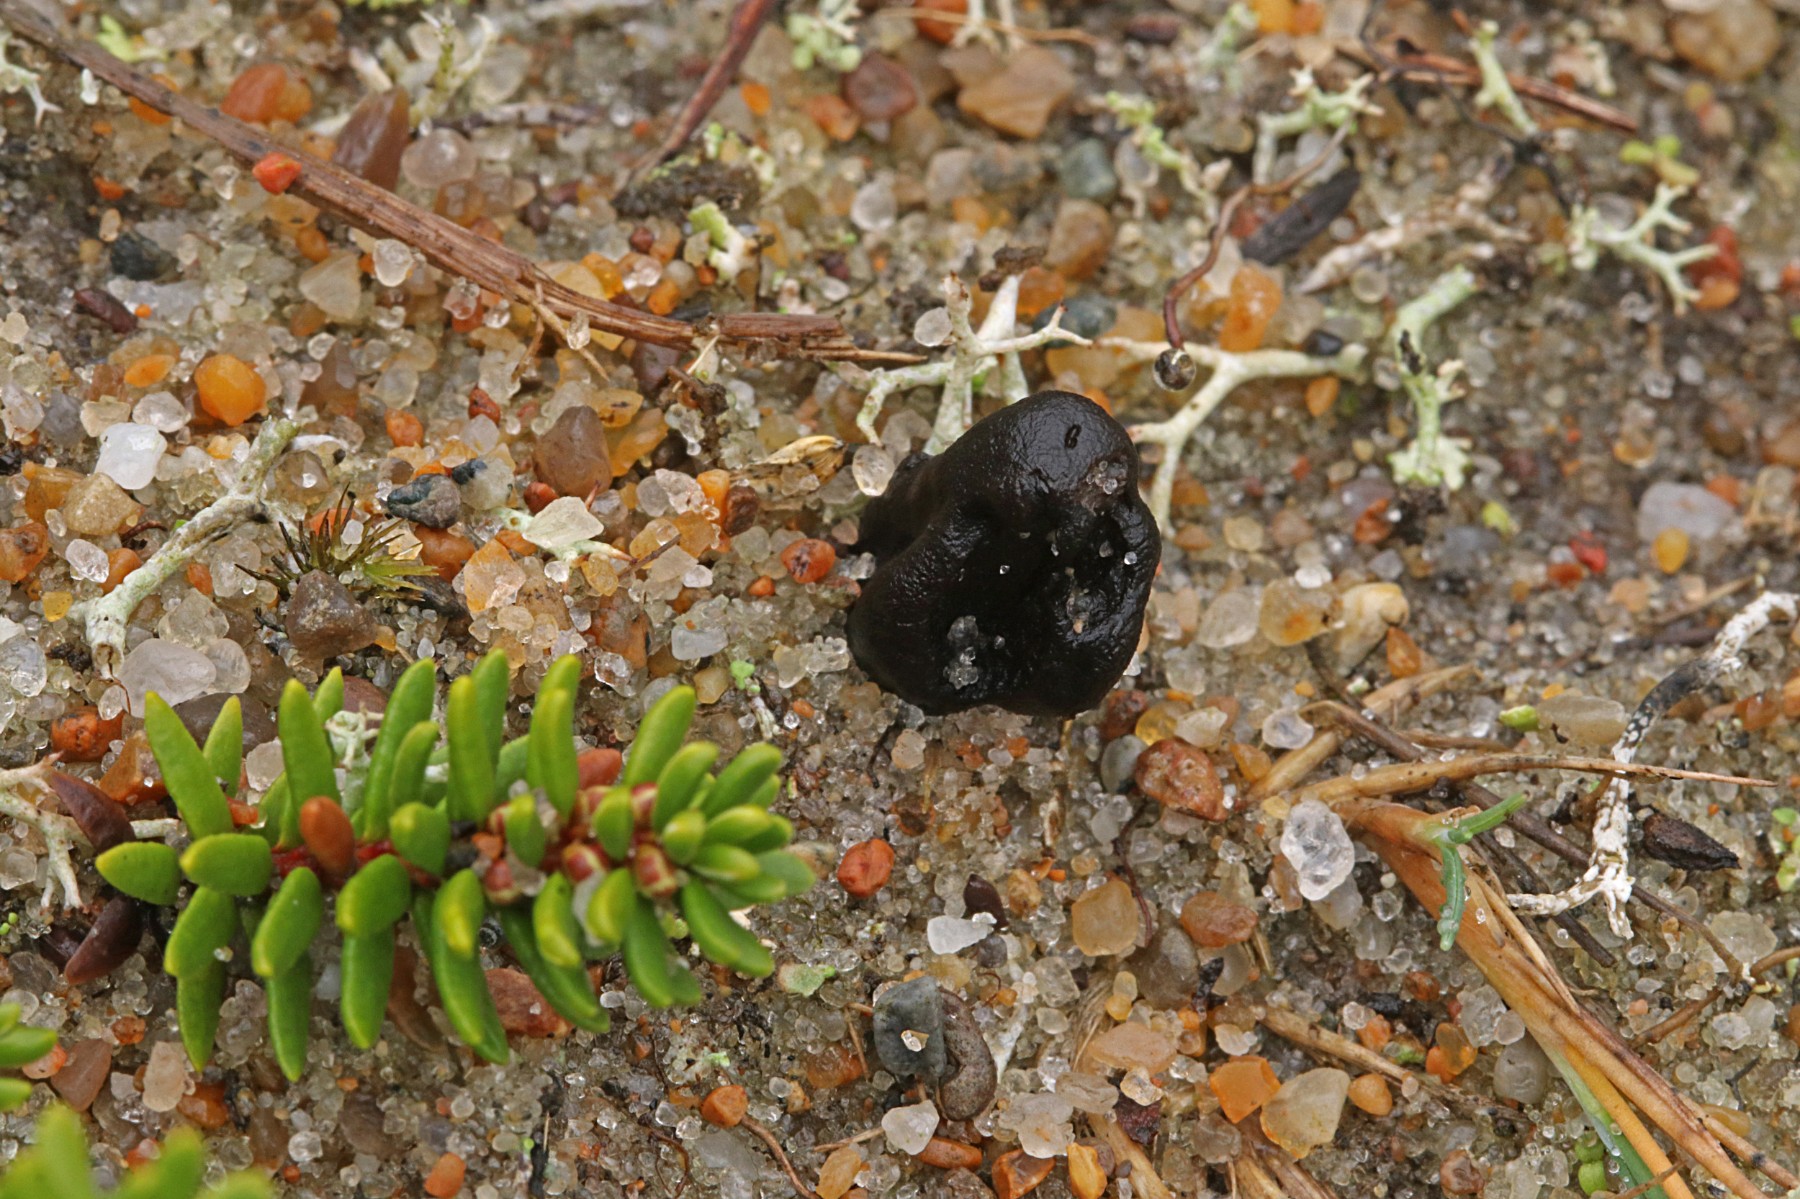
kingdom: Fungi
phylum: Ascomycota
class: Geoglossomycetes
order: Geoglossales
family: Geoglossaceae
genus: Sabuloglossum
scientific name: Sabuloglossum arenarium
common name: klit-jordtunge
